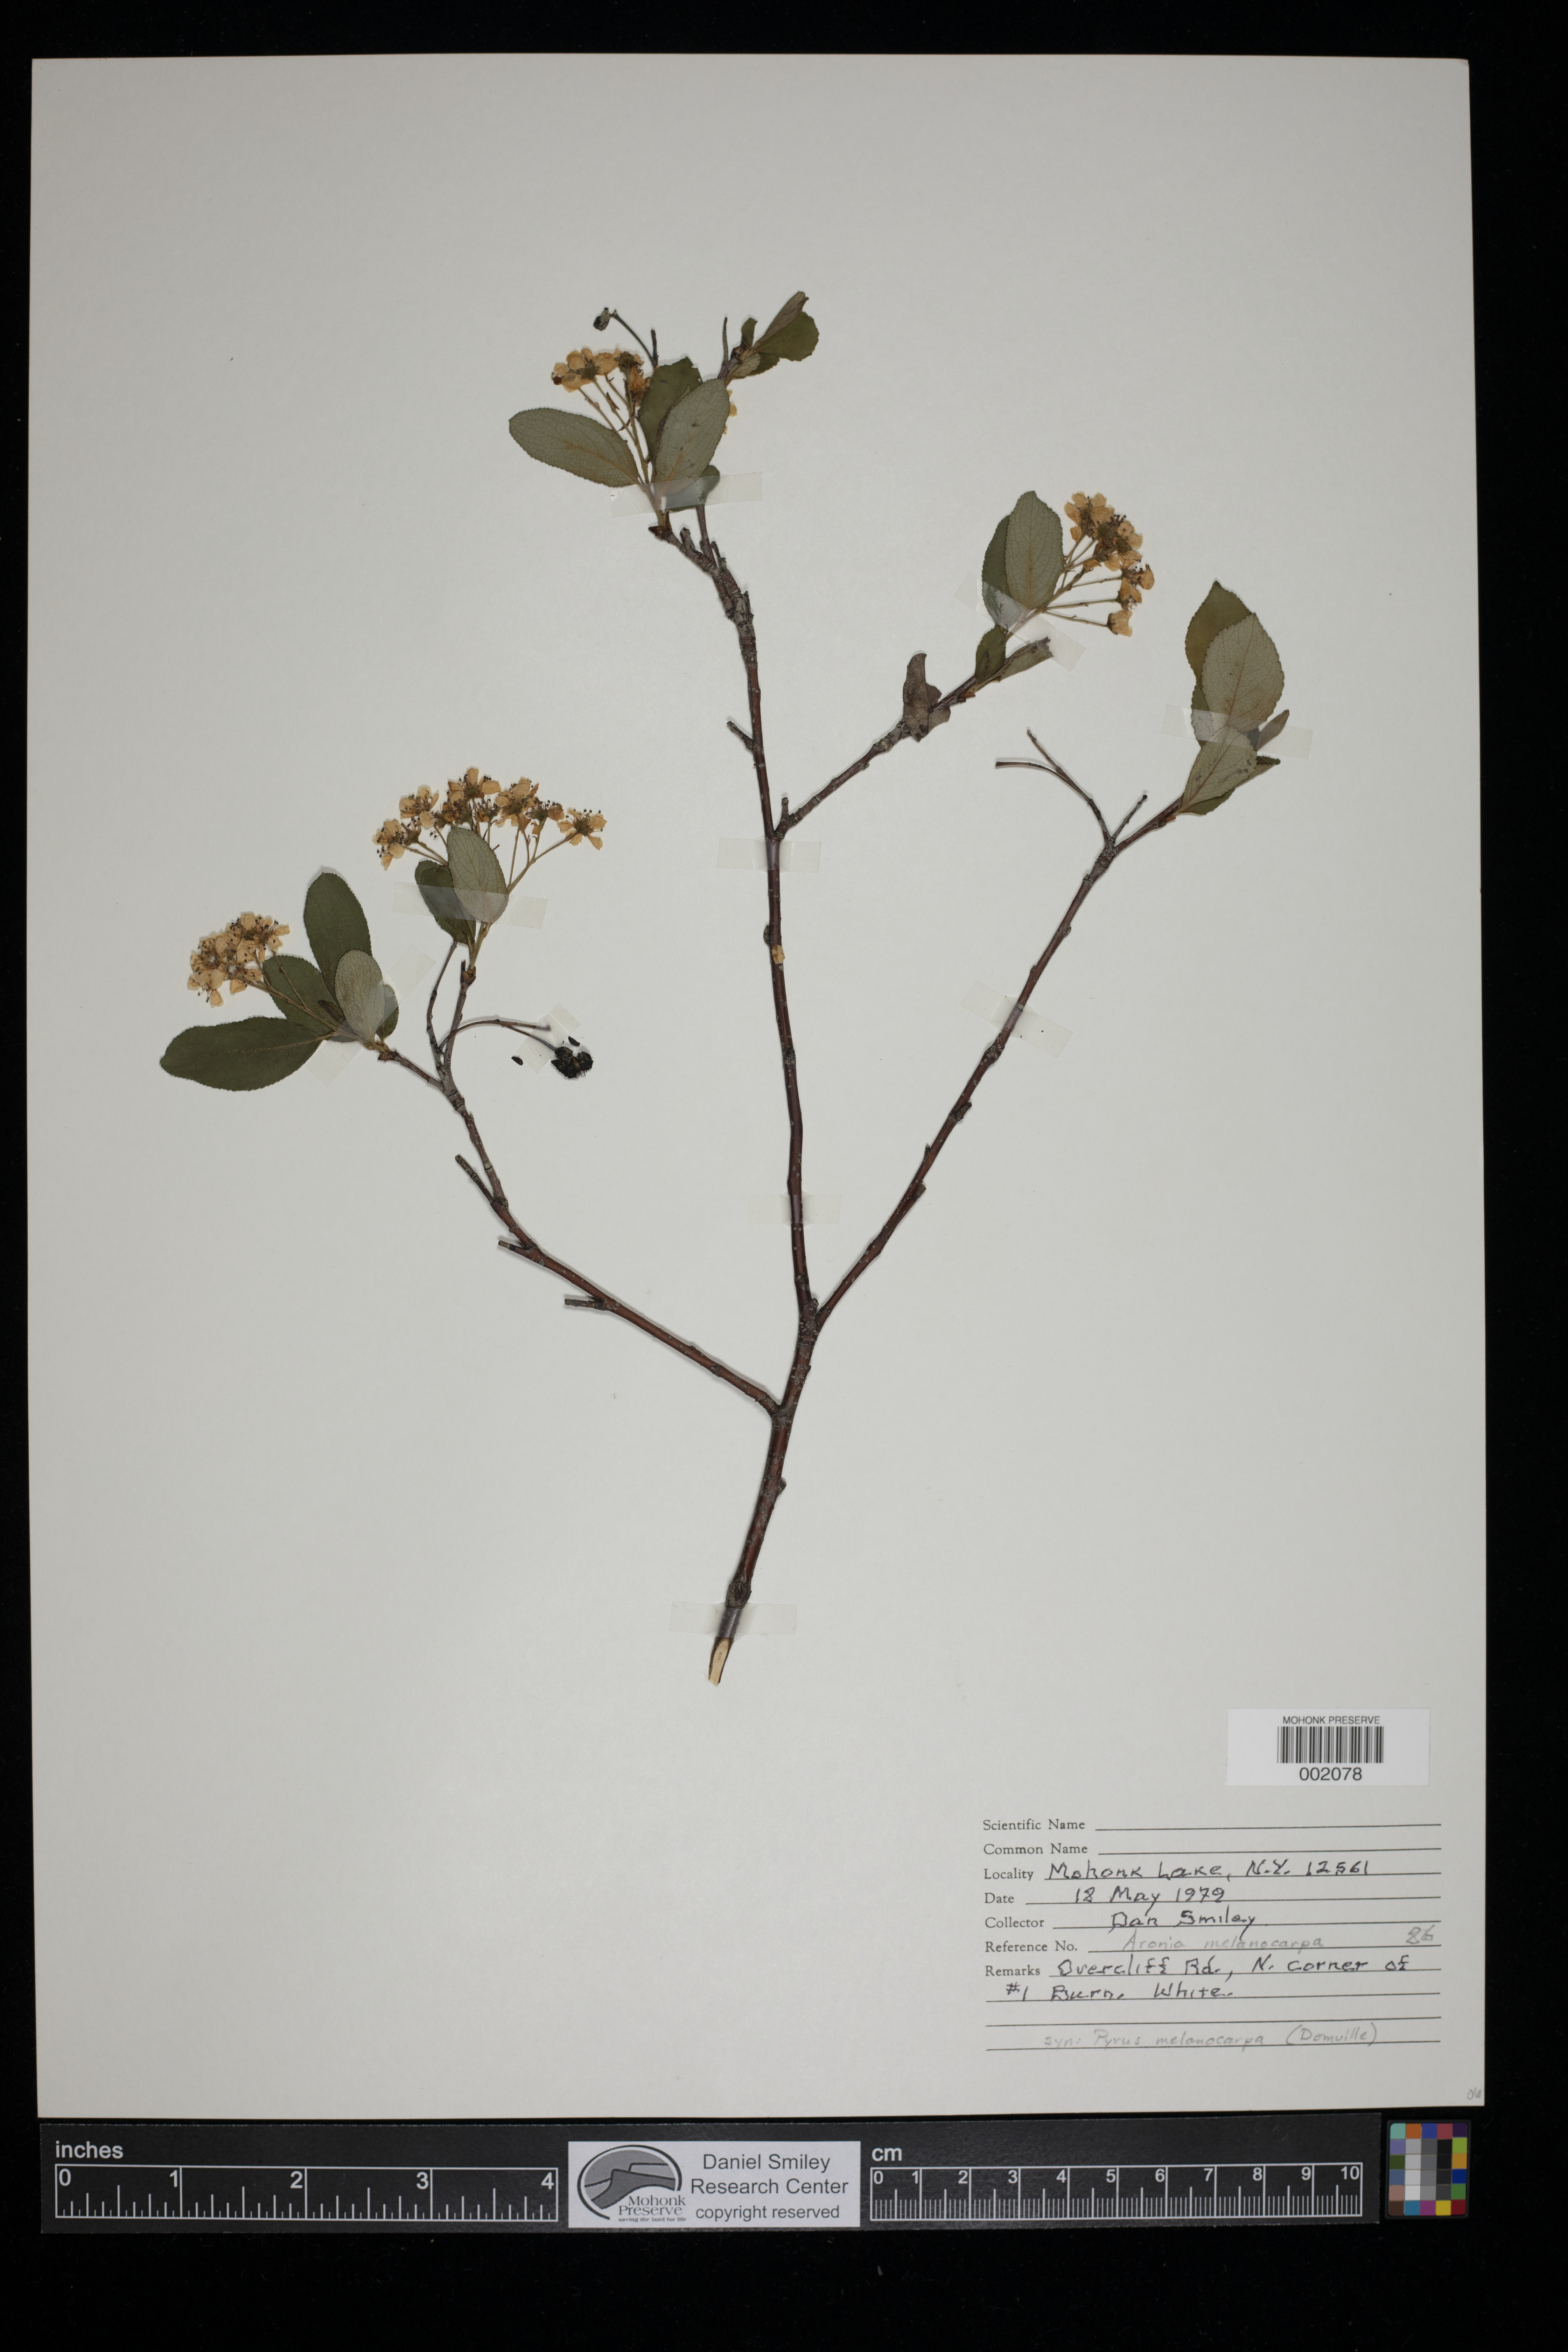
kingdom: Plantae
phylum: Tracheophyta
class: Magnoliopsida
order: Rosales
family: Rosaceae
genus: Aronia
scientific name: Aronia melanocarpa
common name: Black chokeberry
